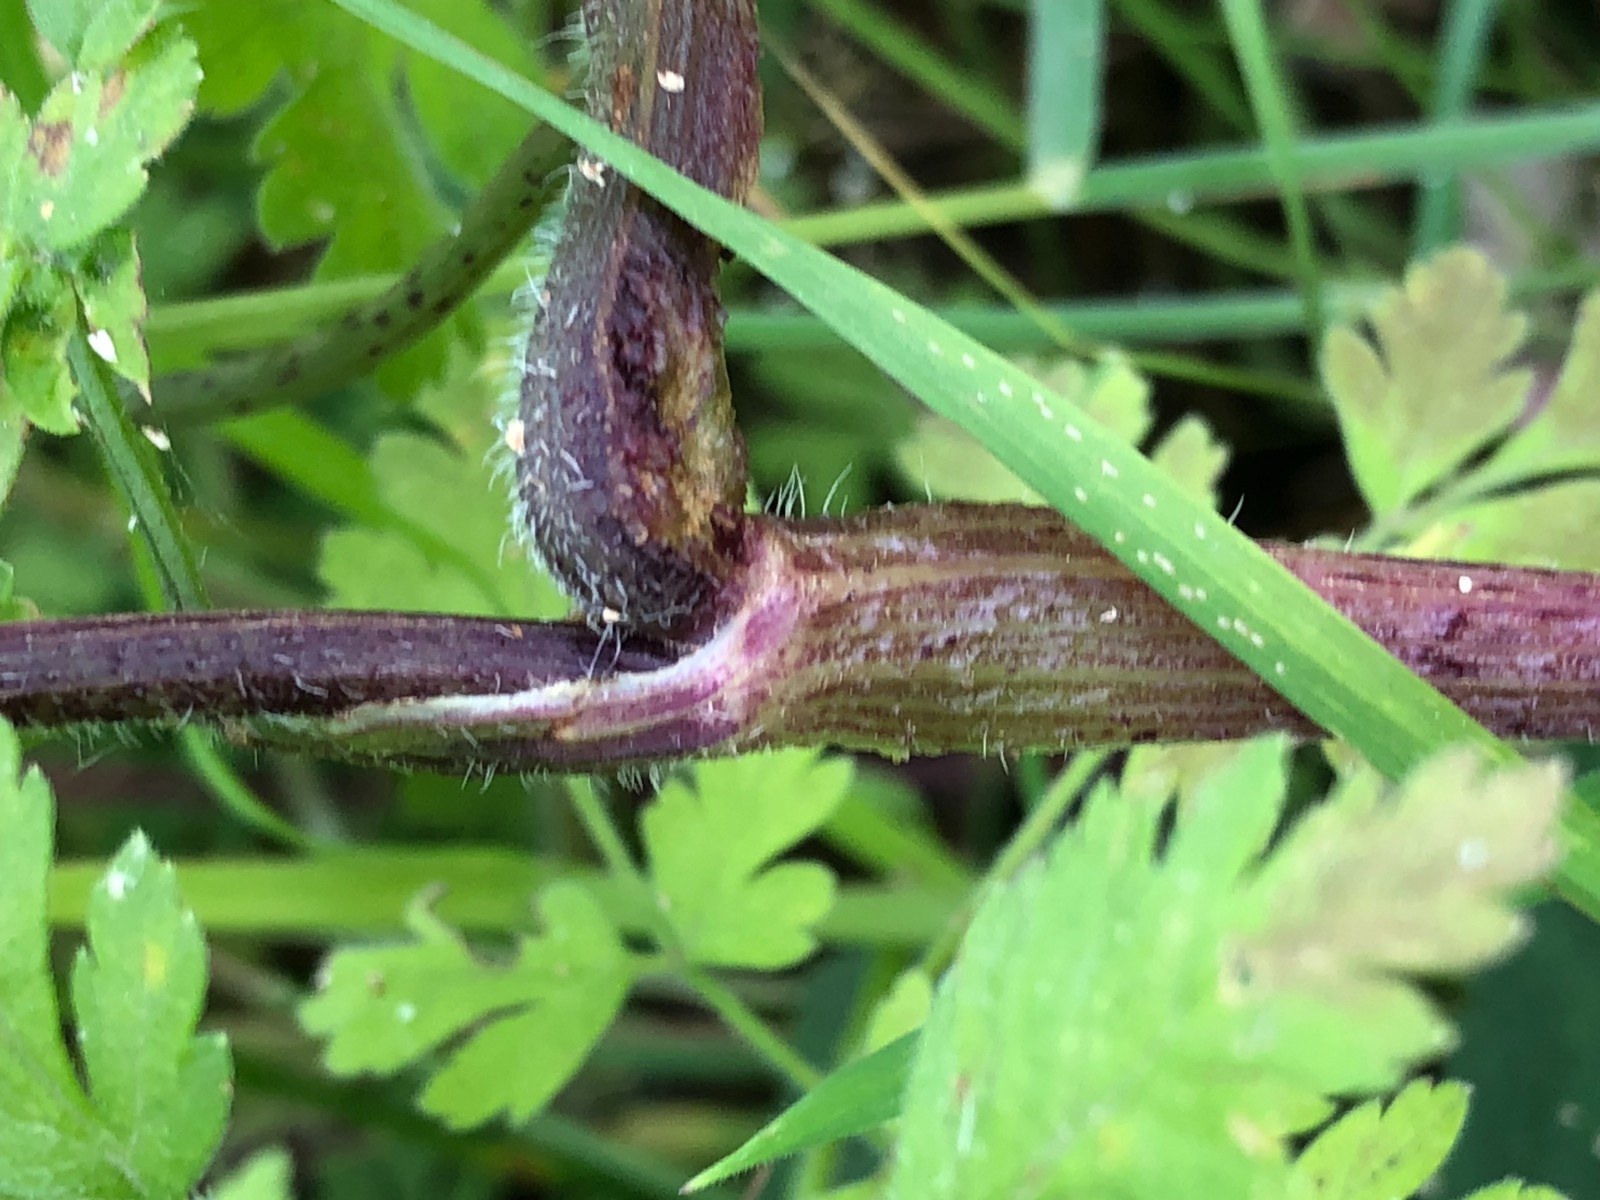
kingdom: Fungi
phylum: Basidiomycota
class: Pucciniomycetes
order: Pucciniales
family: Pucciniaceae
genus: Puccinia
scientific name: Puccinia chaerophylli
